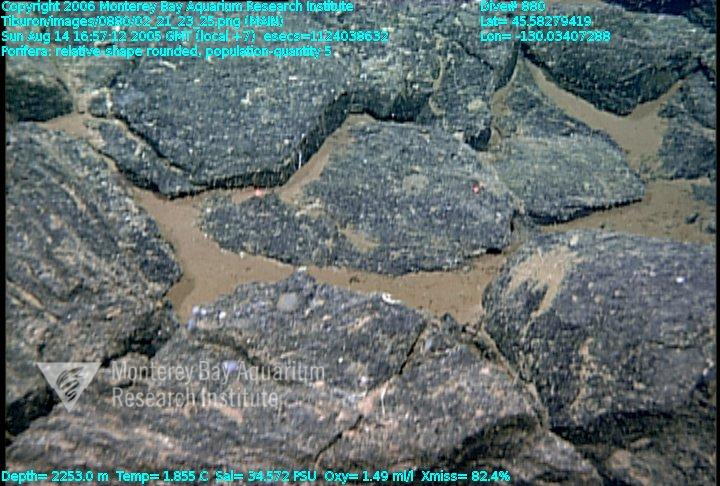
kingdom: Animalia
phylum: Porifera
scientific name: Porifera
